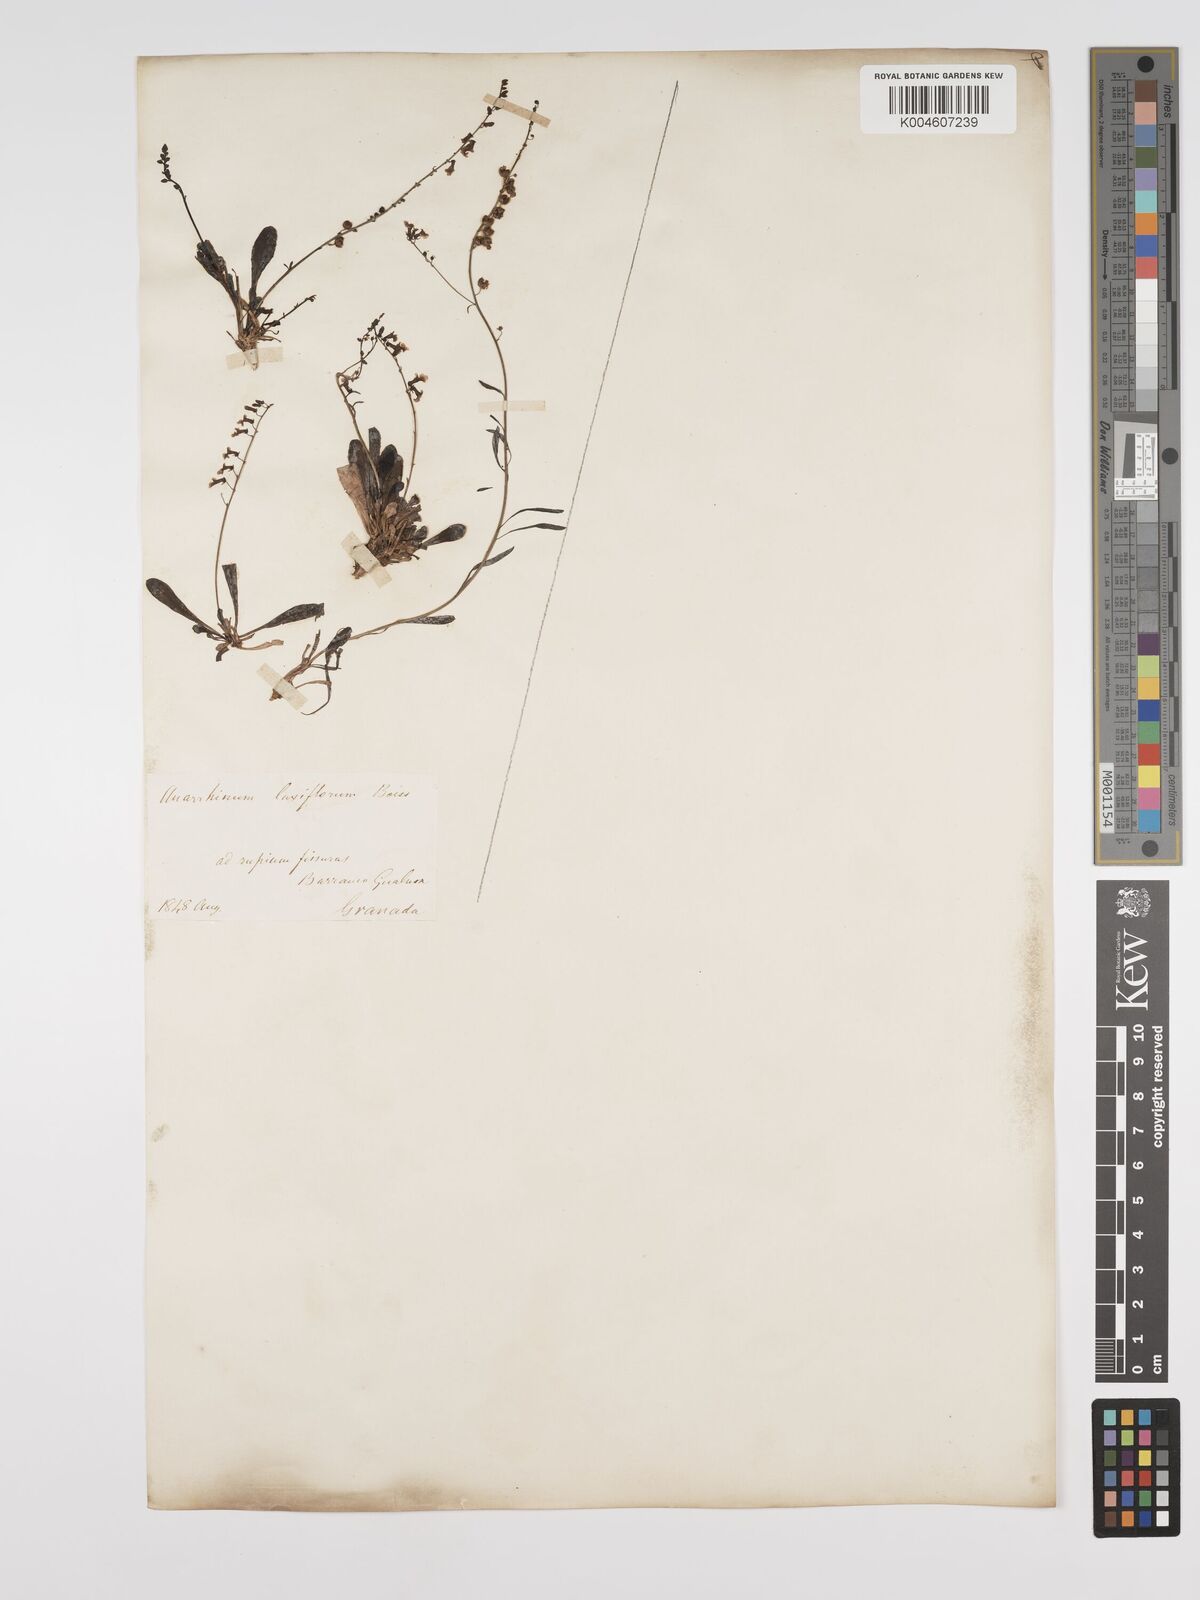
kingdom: Plantae
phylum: Tracheophyta
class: Magnoliopsida
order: Lamiales
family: Plantaginaceae
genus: Anarrhinum
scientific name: Anarrhinum laxiflorum
